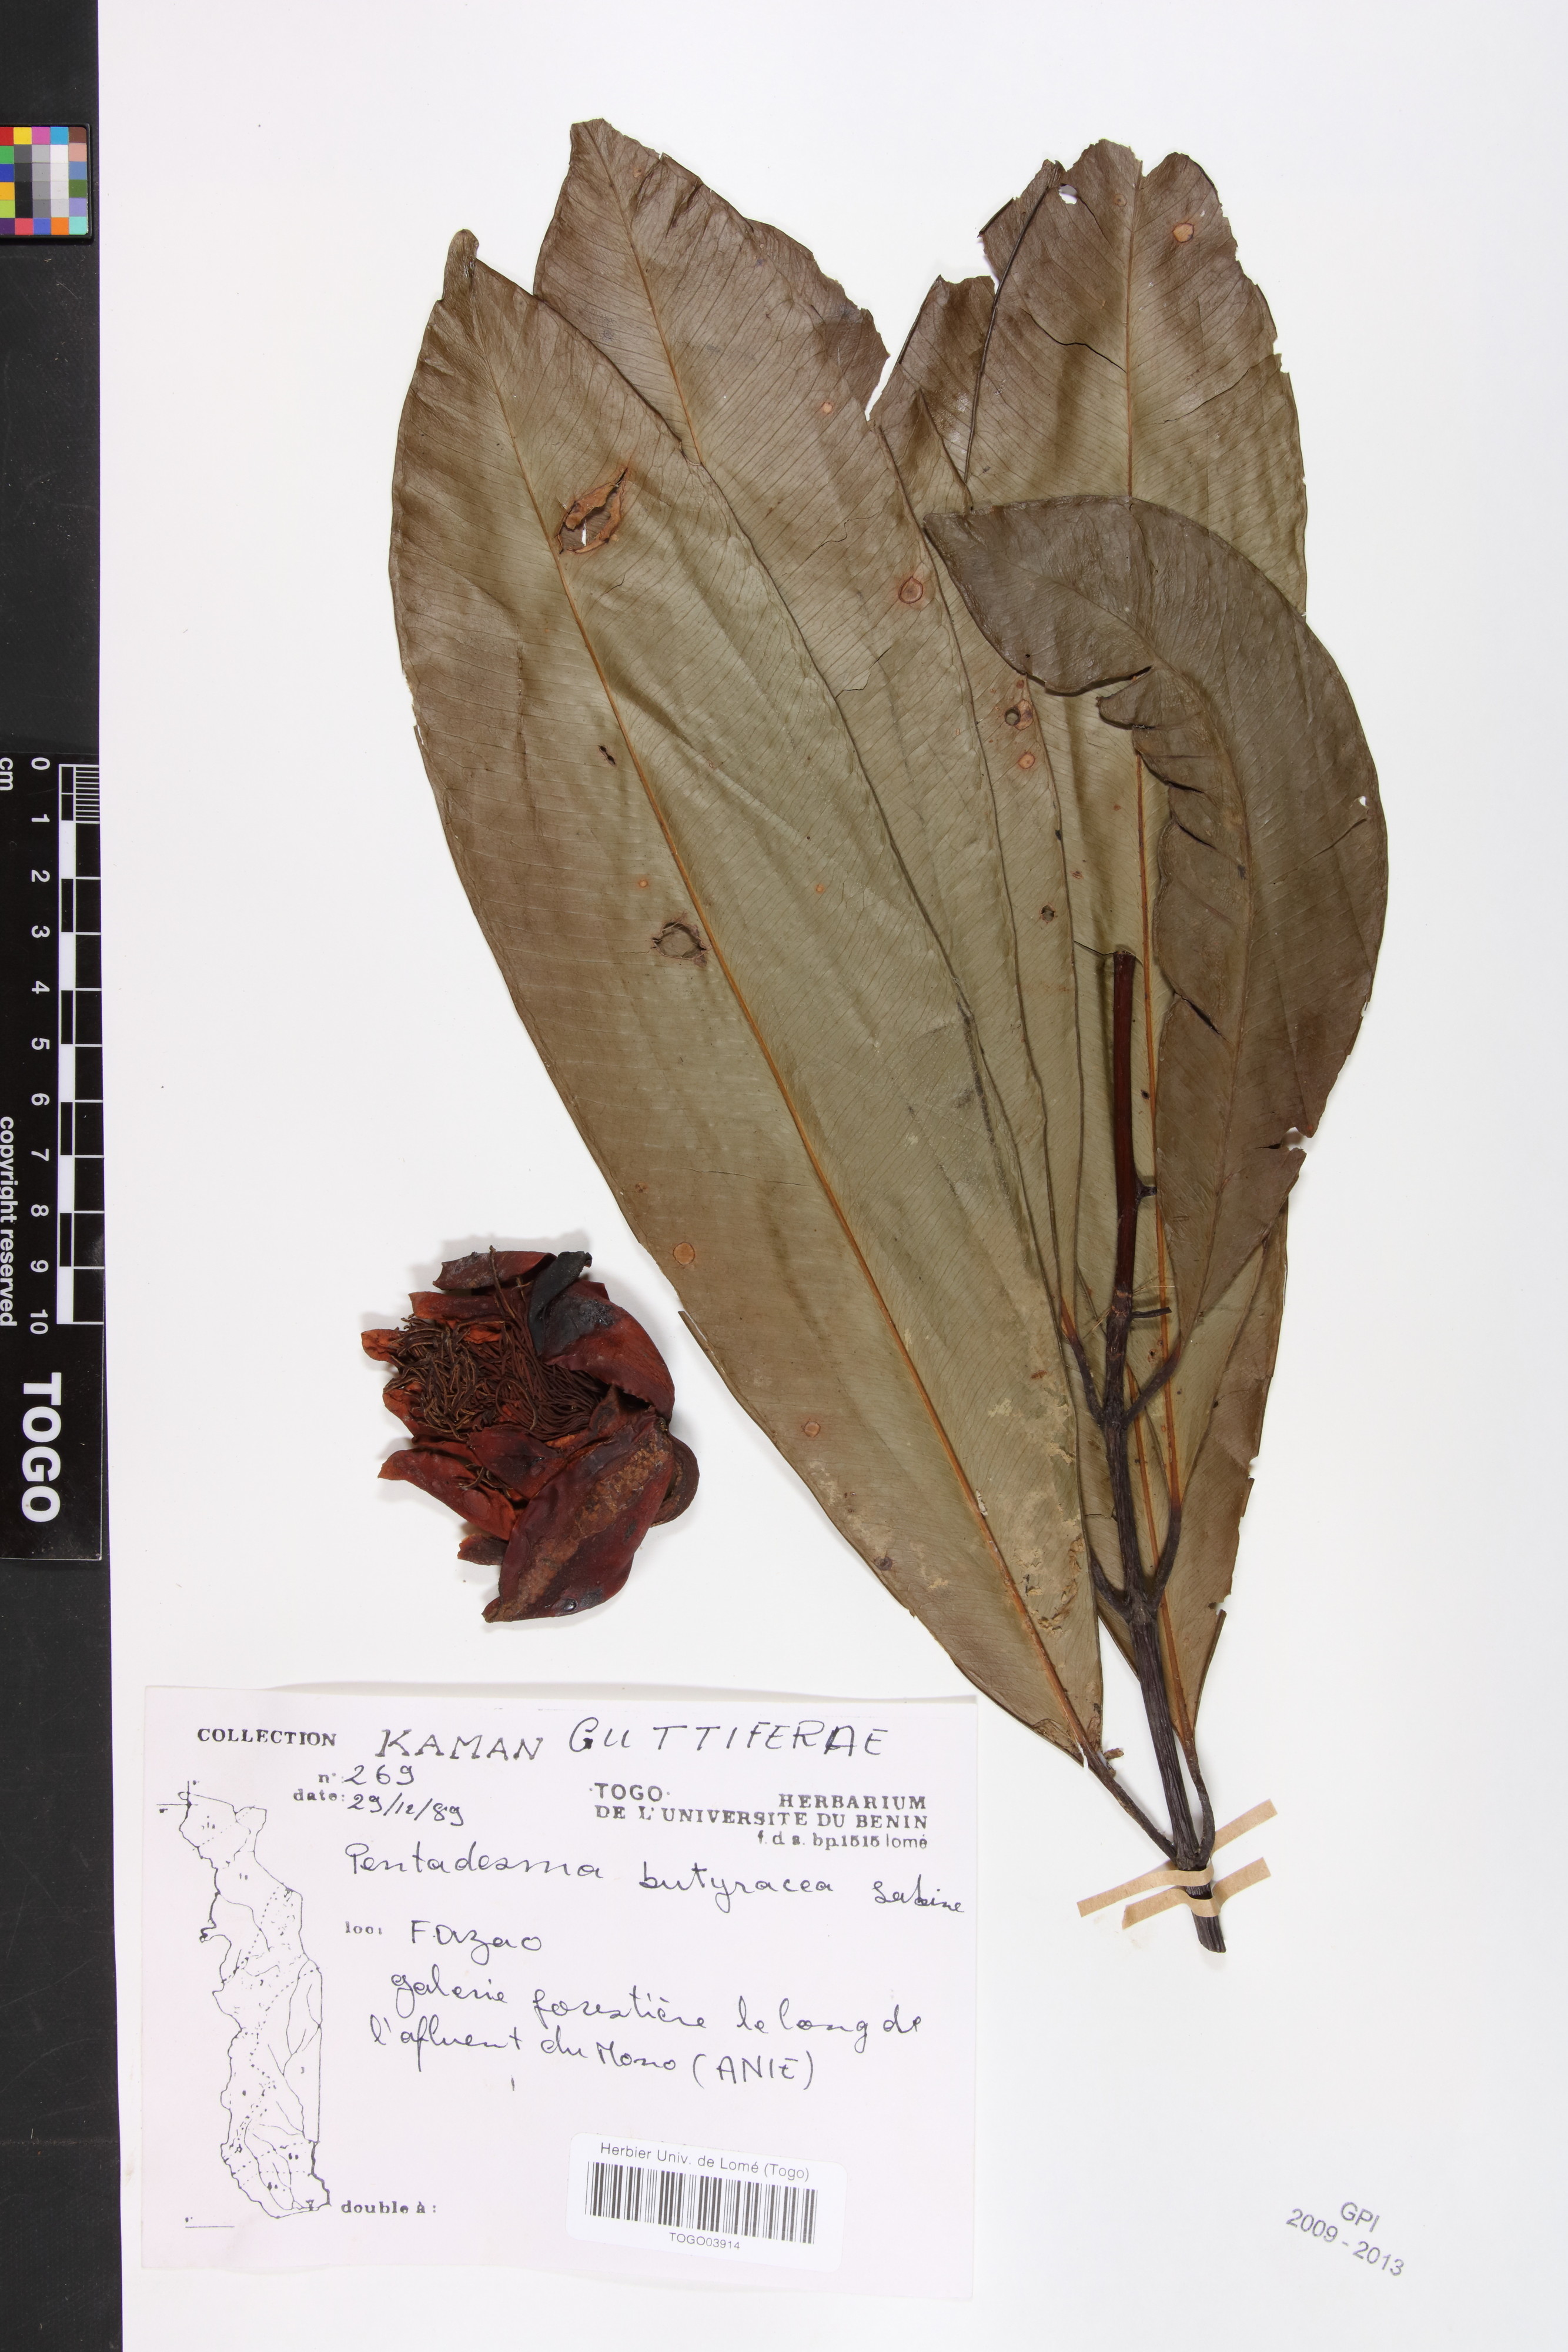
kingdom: Plantae
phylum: Tracheophyta
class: Magnoliopsida
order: Malpighiales
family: Clusiaceae
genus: Pentadesma
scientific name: Pentadesma butyracea
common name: Buttertree
